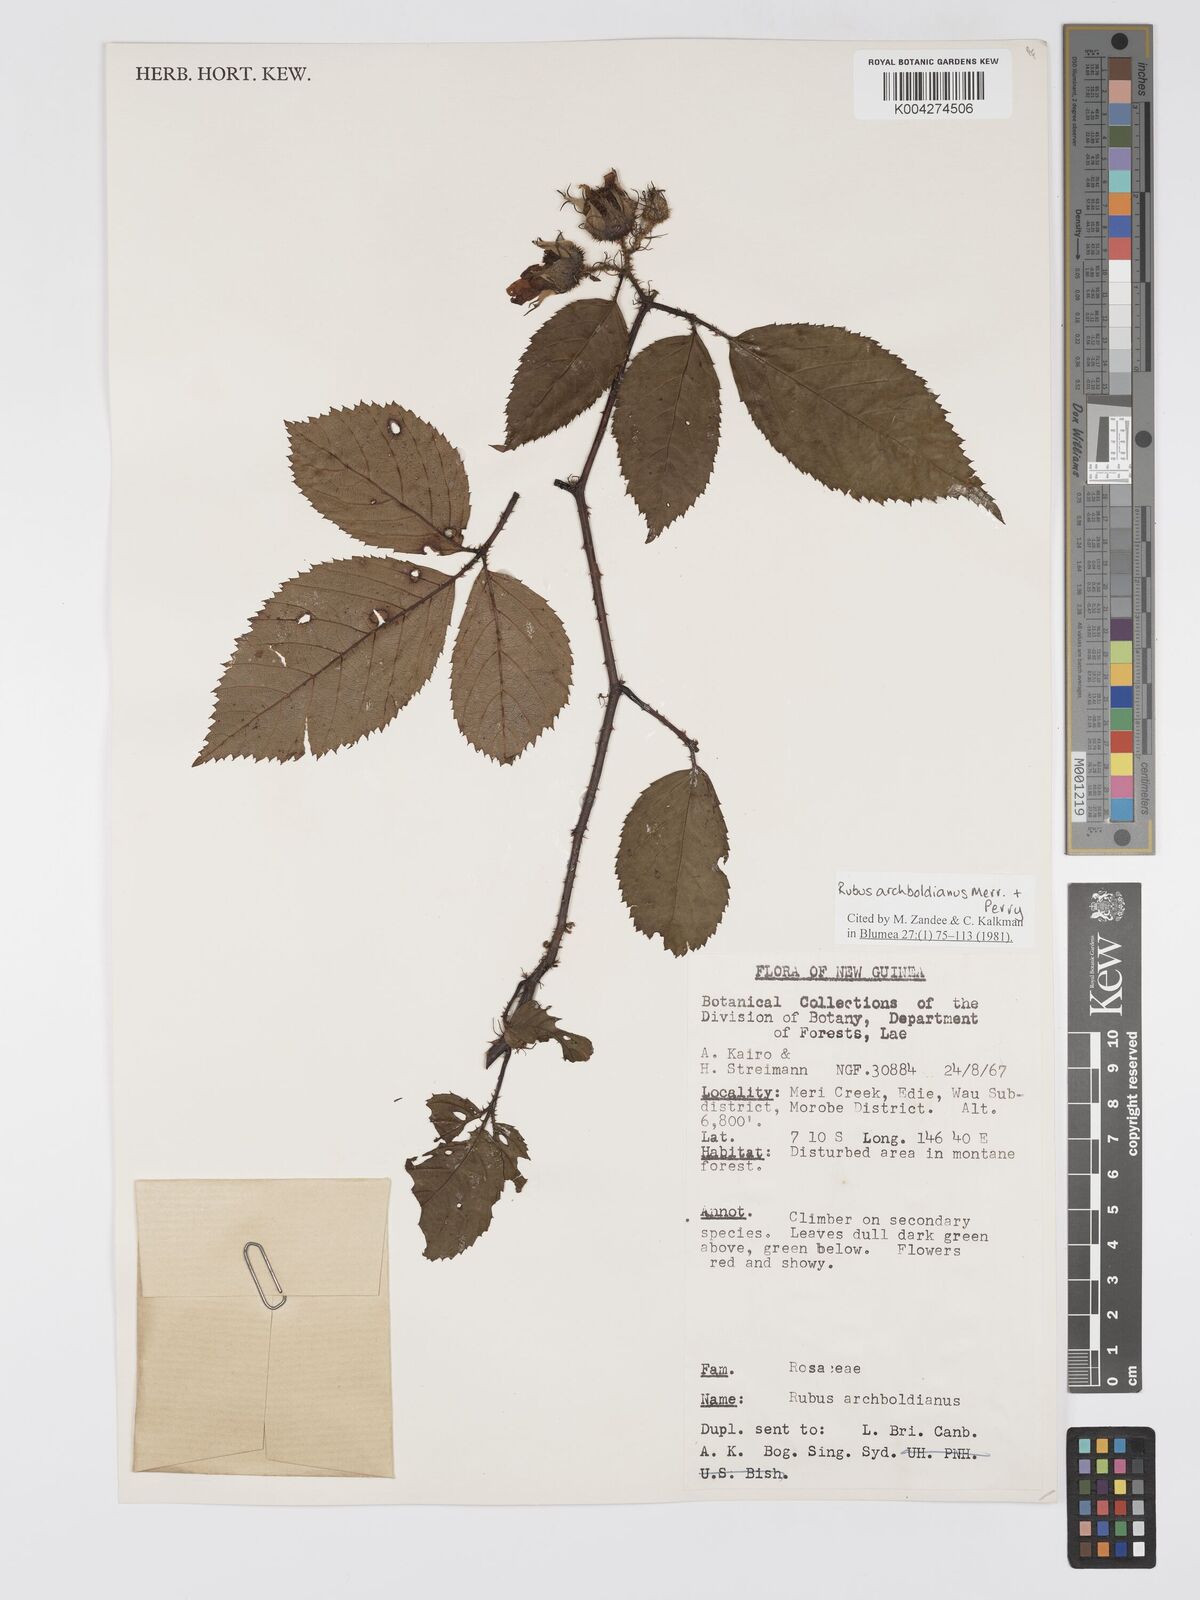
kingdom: Plantae
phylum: Tracheophyta
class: Magnoliopsida
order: Rosales
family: Rosaceae
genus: Rubus
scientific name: Rubus archboldianus
